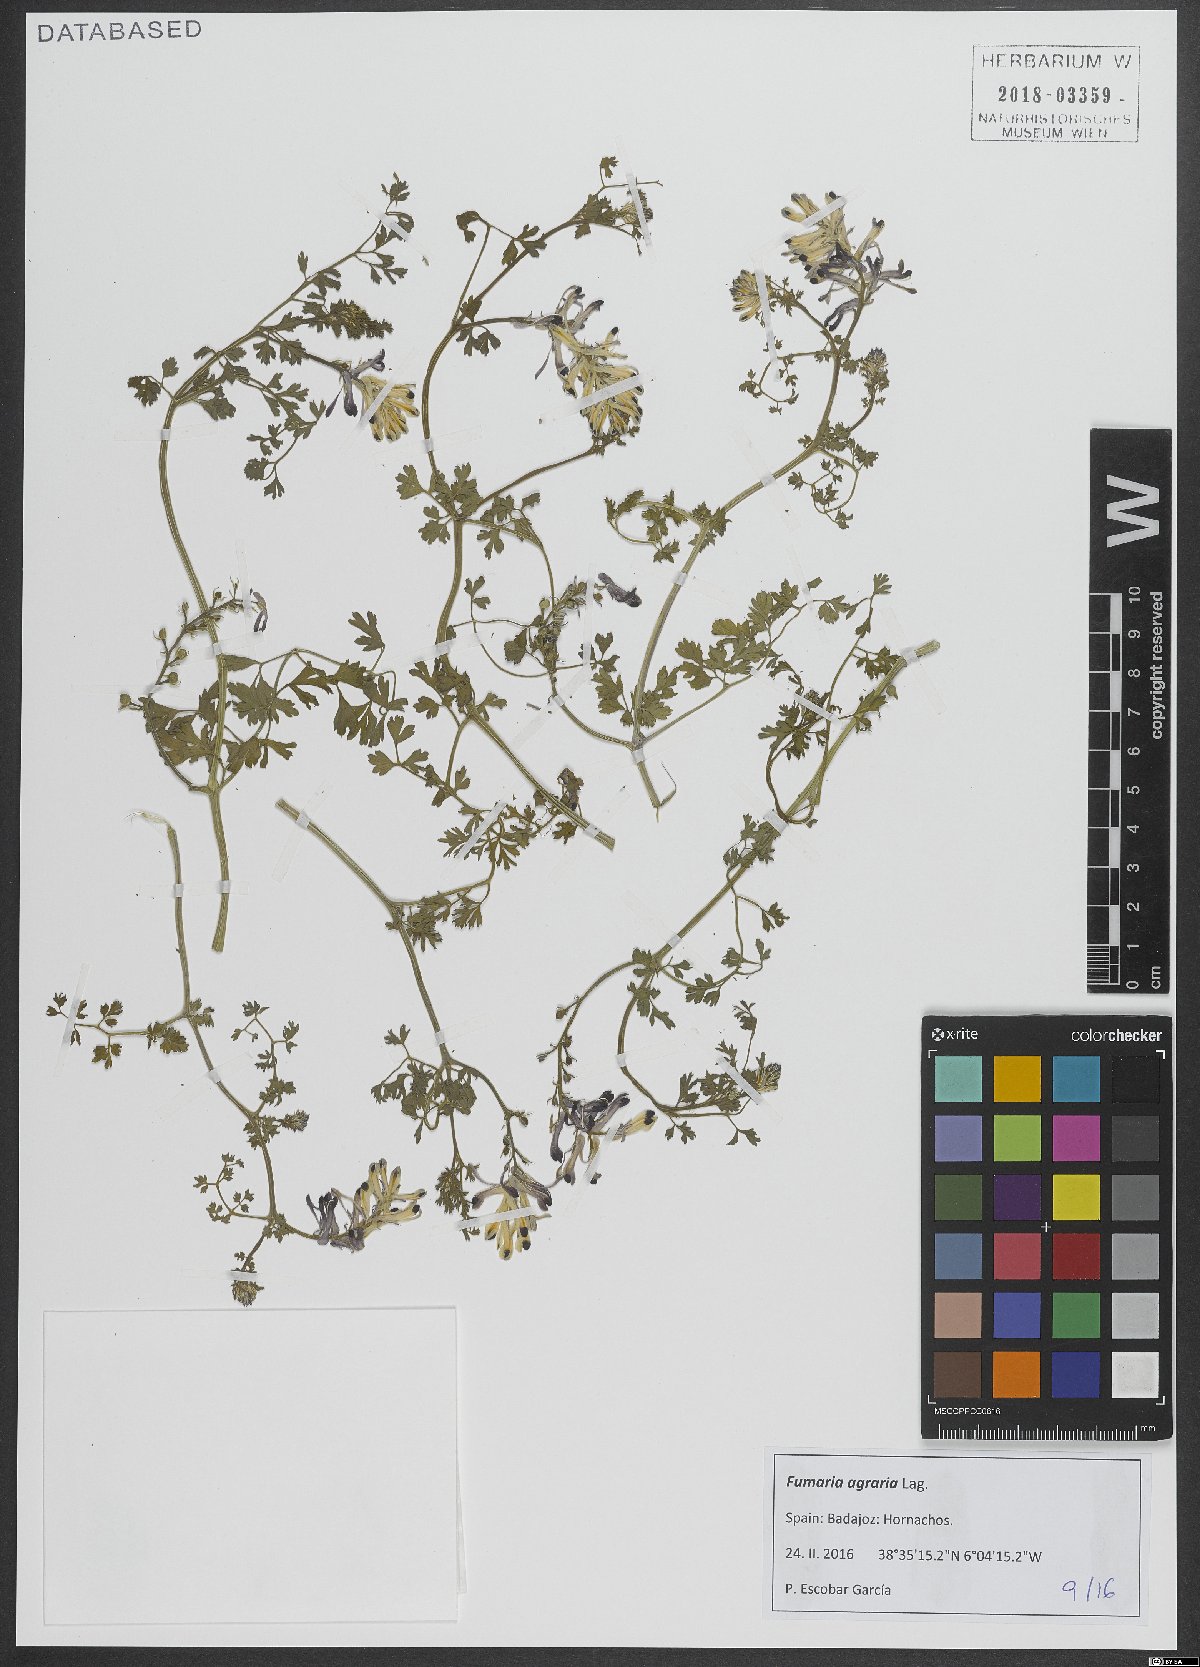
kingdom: Plantae
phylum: Tracheophyta
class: Magnoliopsida
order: Ranunculales
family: Papaveraceae
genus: Fumaria
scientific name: Fumaria agraria
